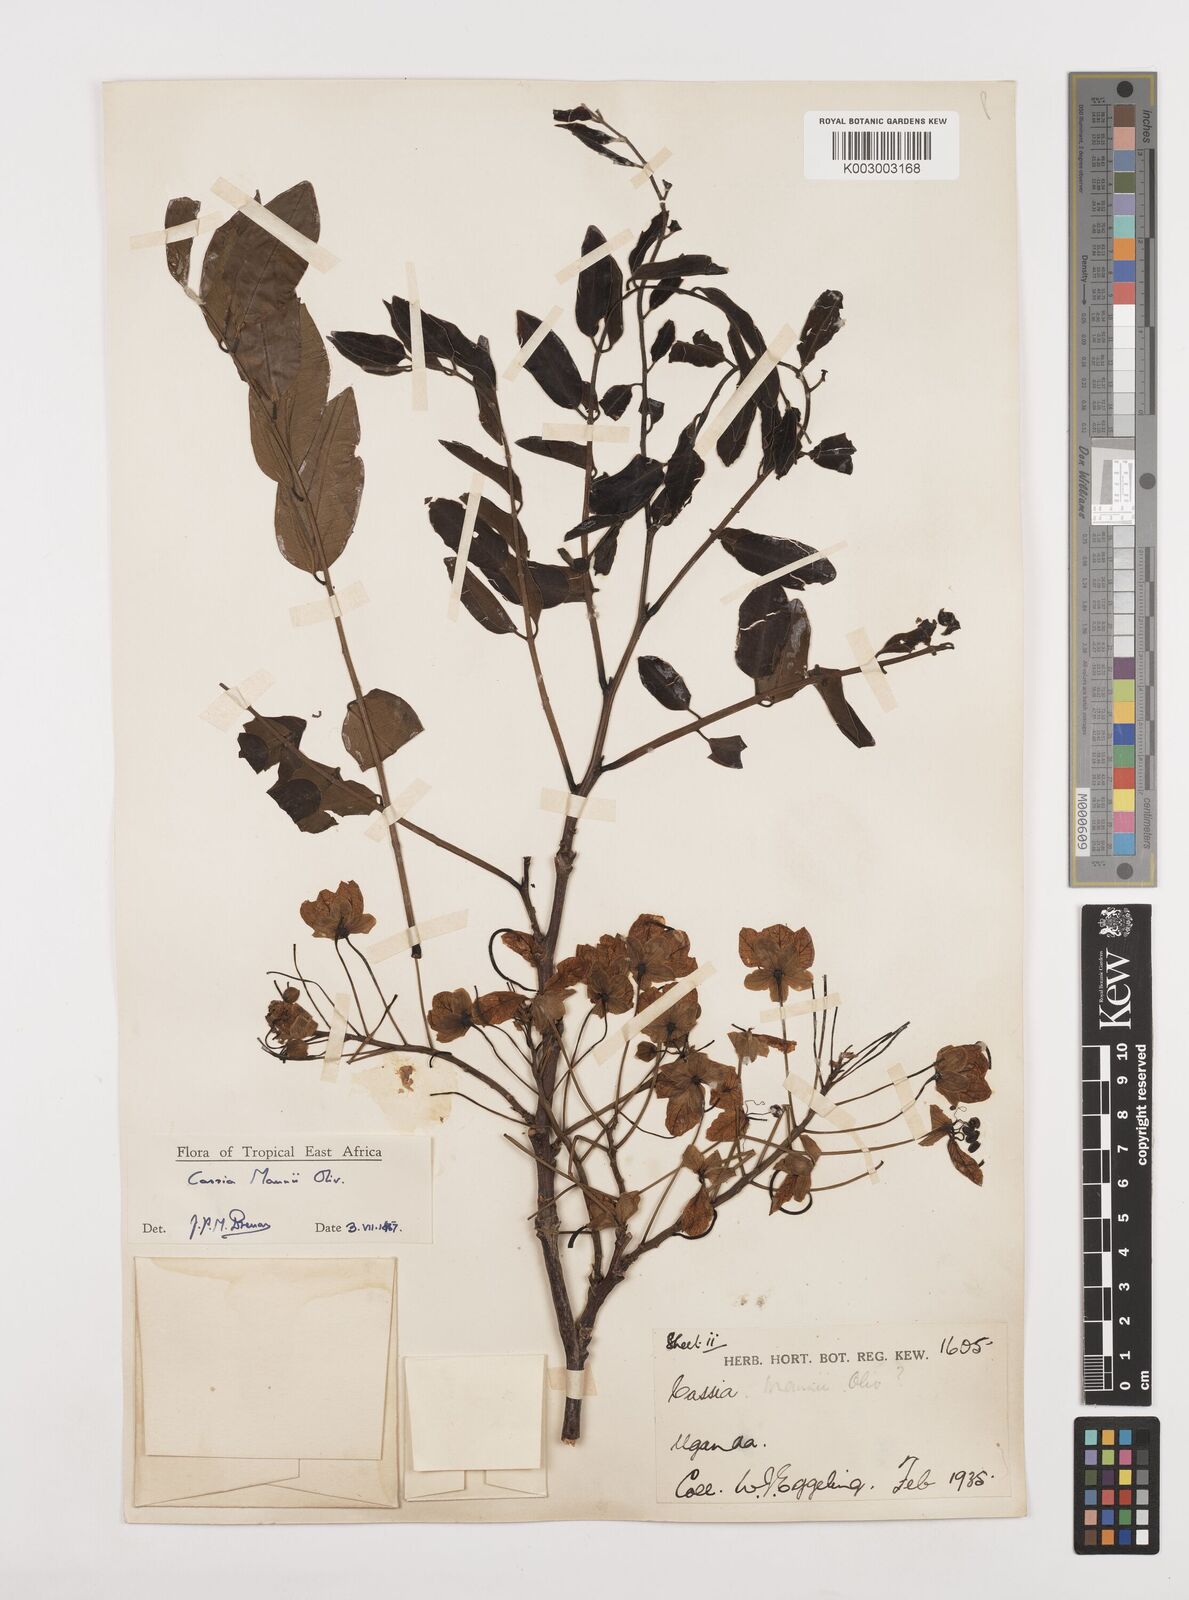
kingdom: Plantae
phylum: Tracheophyta
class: Magnoliopsida
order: Fabales
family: Fabaceae
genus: Cassia
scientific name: Cassia mannii
